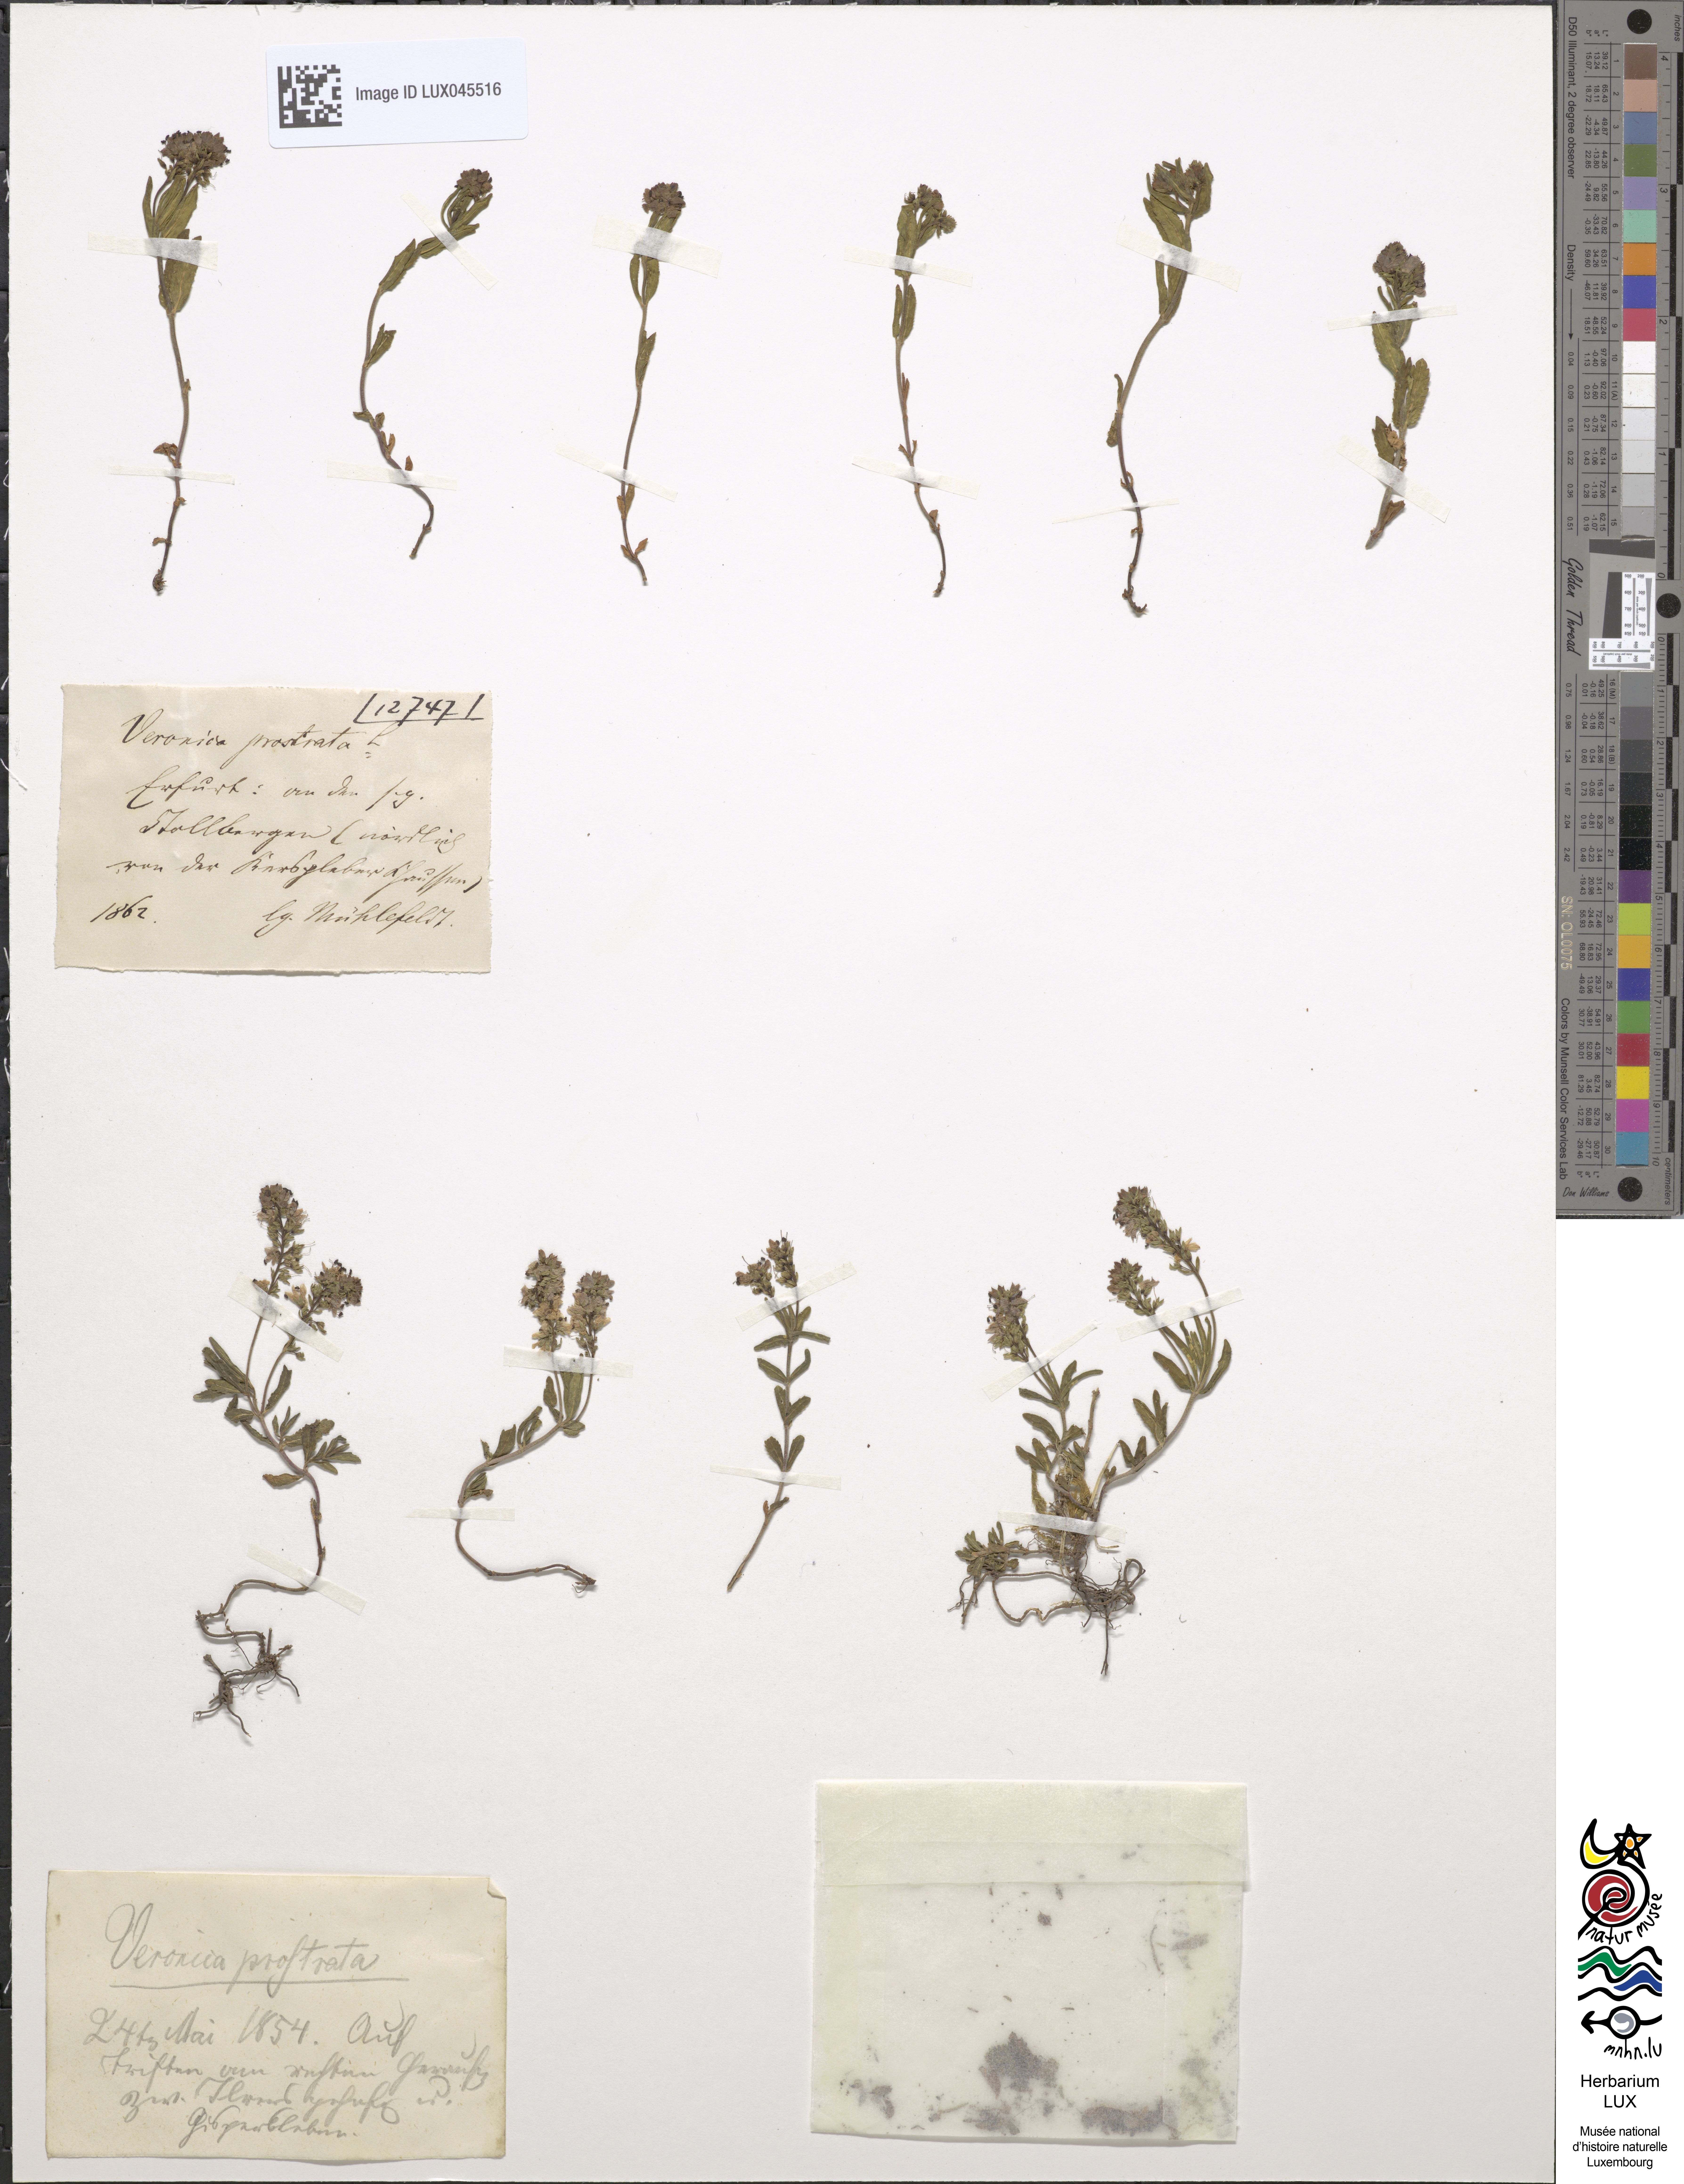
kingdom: Plantae
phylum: Tracheophyta
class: Magnoliopsida
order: Lamiales
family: Plantaginaceae
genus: Veronica
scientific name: Veronica prostrata
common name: Prostrate speedwell
